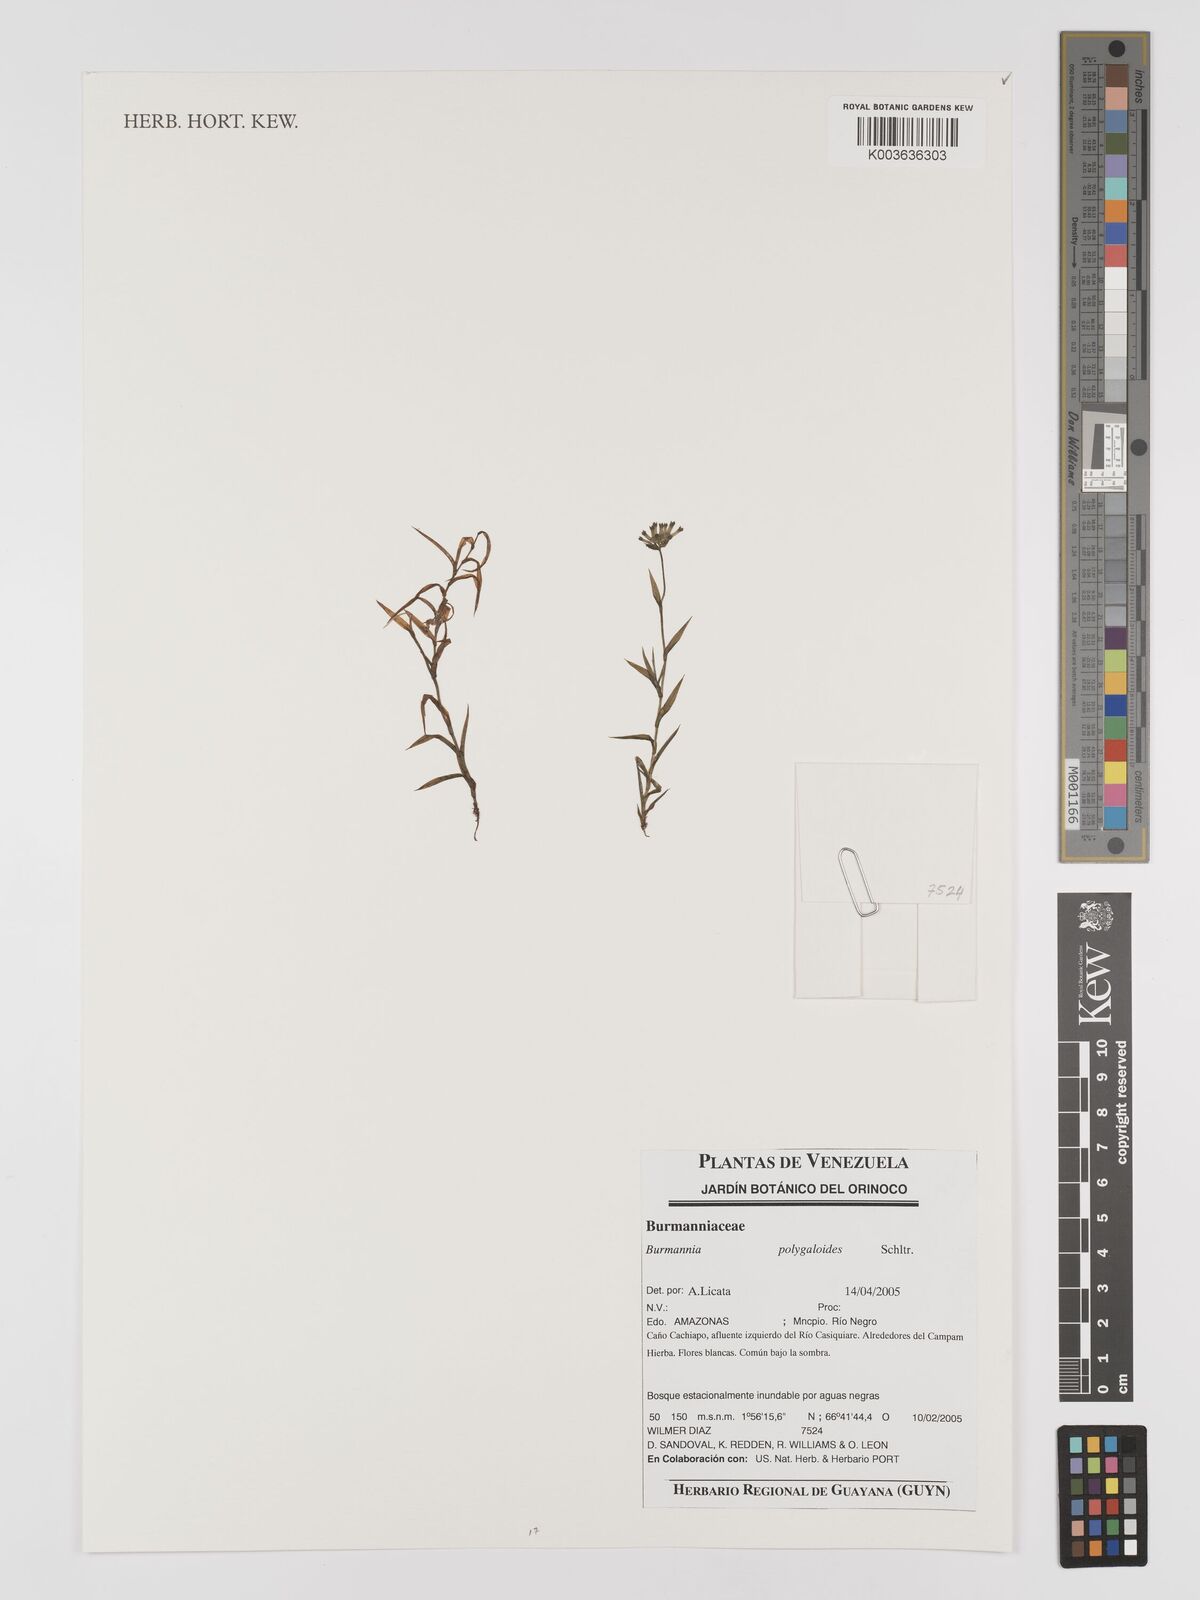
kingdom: Plantae
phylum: Tracheophyta
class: Liliopsida
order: Dioscoreales
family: Burmanniaceae
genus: Burmannia
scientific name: Burmannia polygaloides
